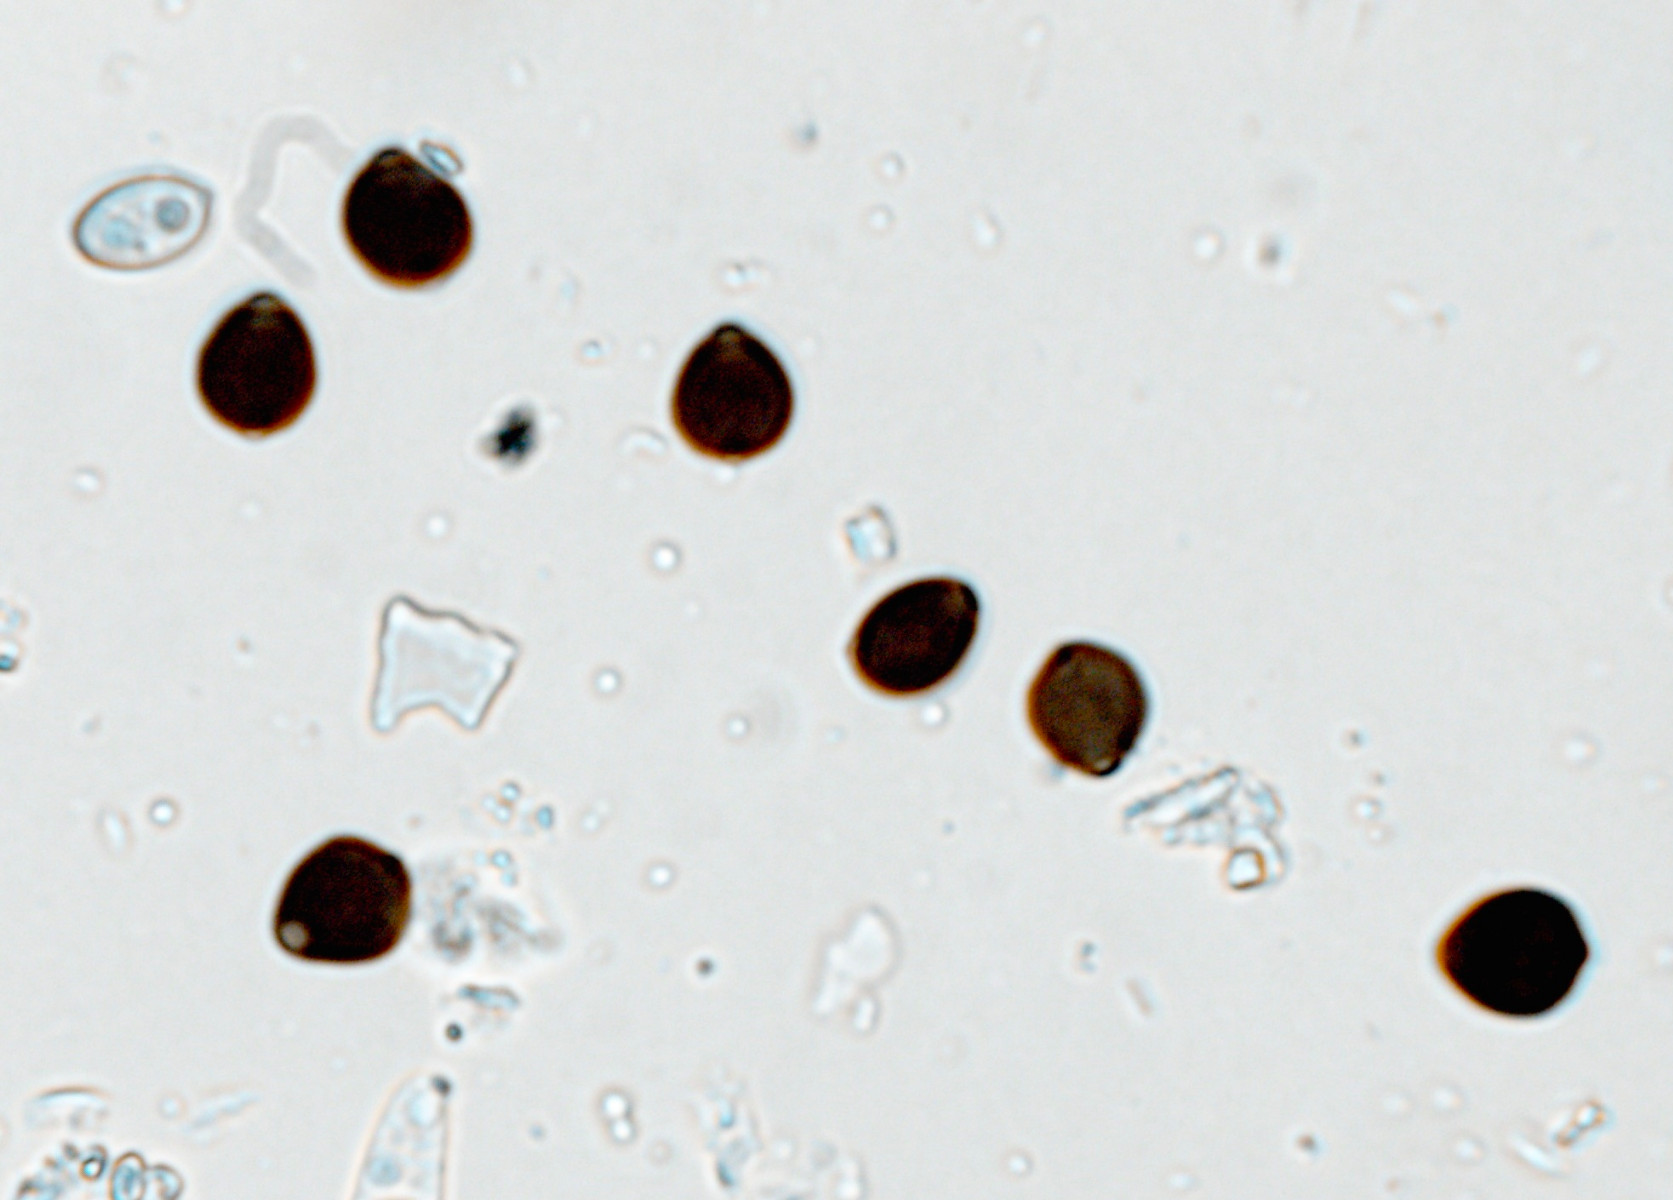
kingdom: Fungi
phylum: Basidiomycota
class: Agaricomycetes
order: Agaricales
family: Psathyrellaceae
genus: Parasola
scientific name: Parasola crataegi
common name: tjørne-hjulhat
